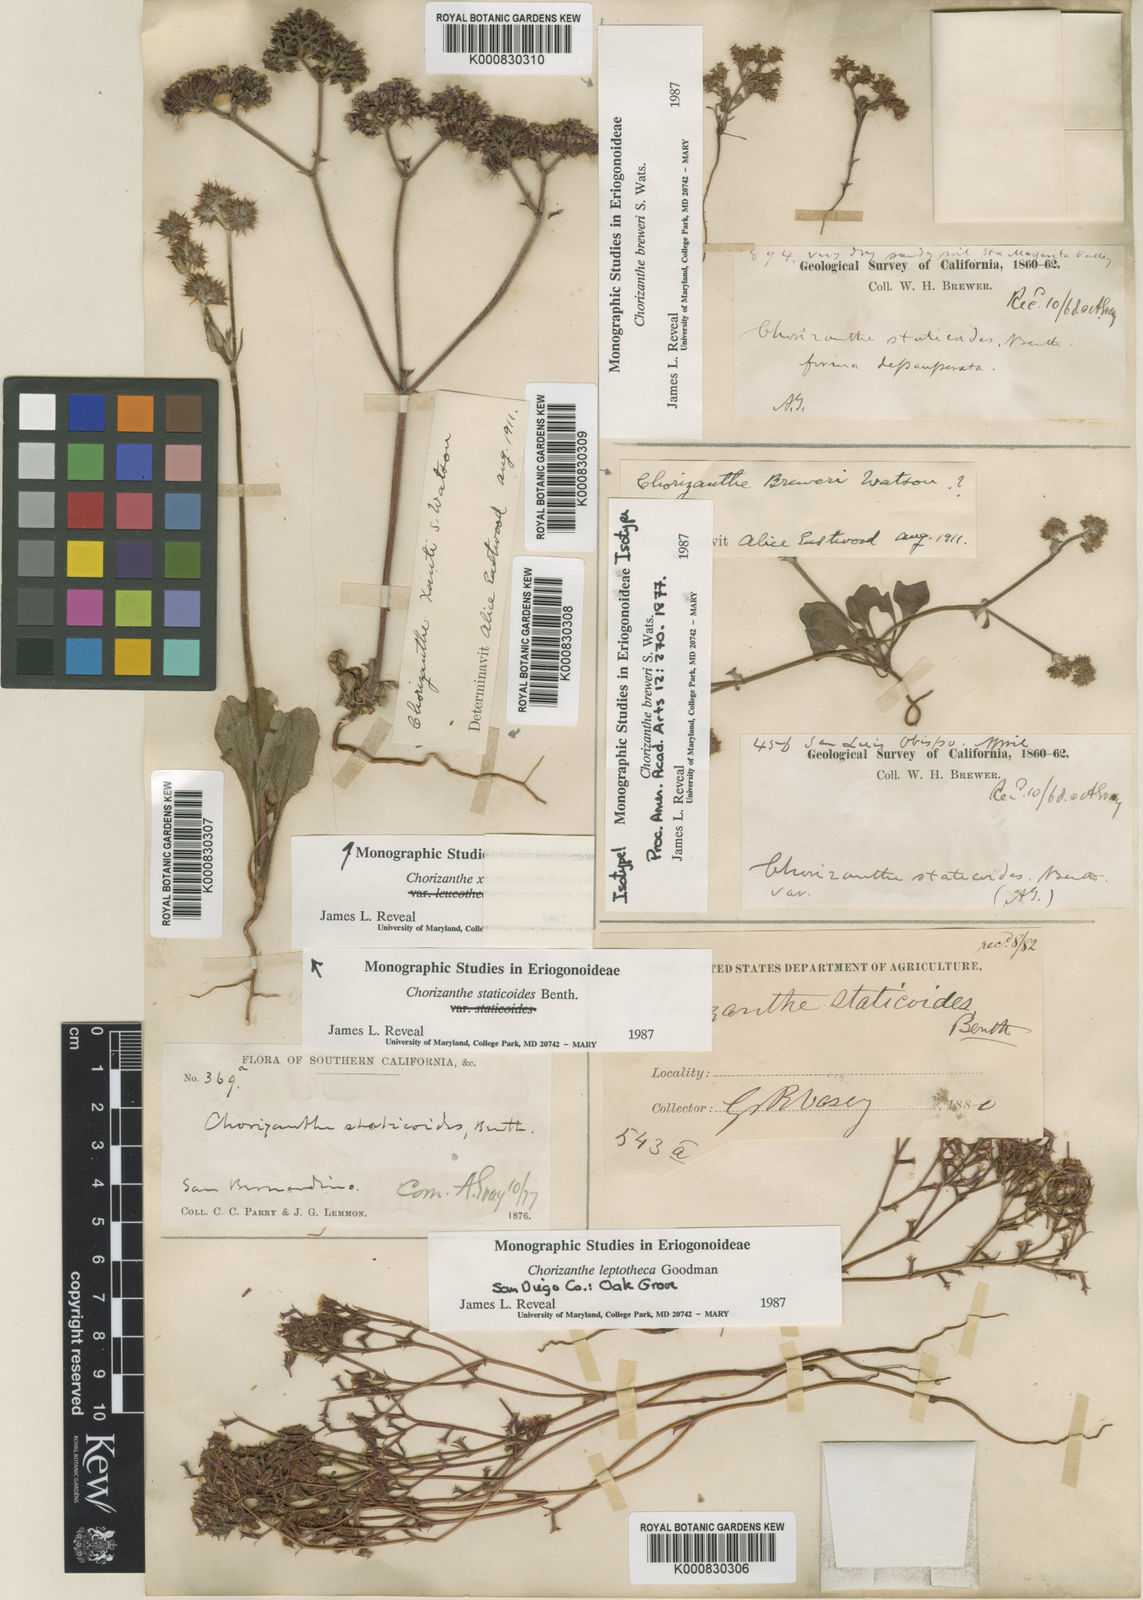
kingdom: Plantae
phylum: Tracheophyta
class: Magnoliopsida
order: Caryophyllales
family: Polygonaceae
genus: Chorizanthe
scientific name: Chorizanthe breweri
